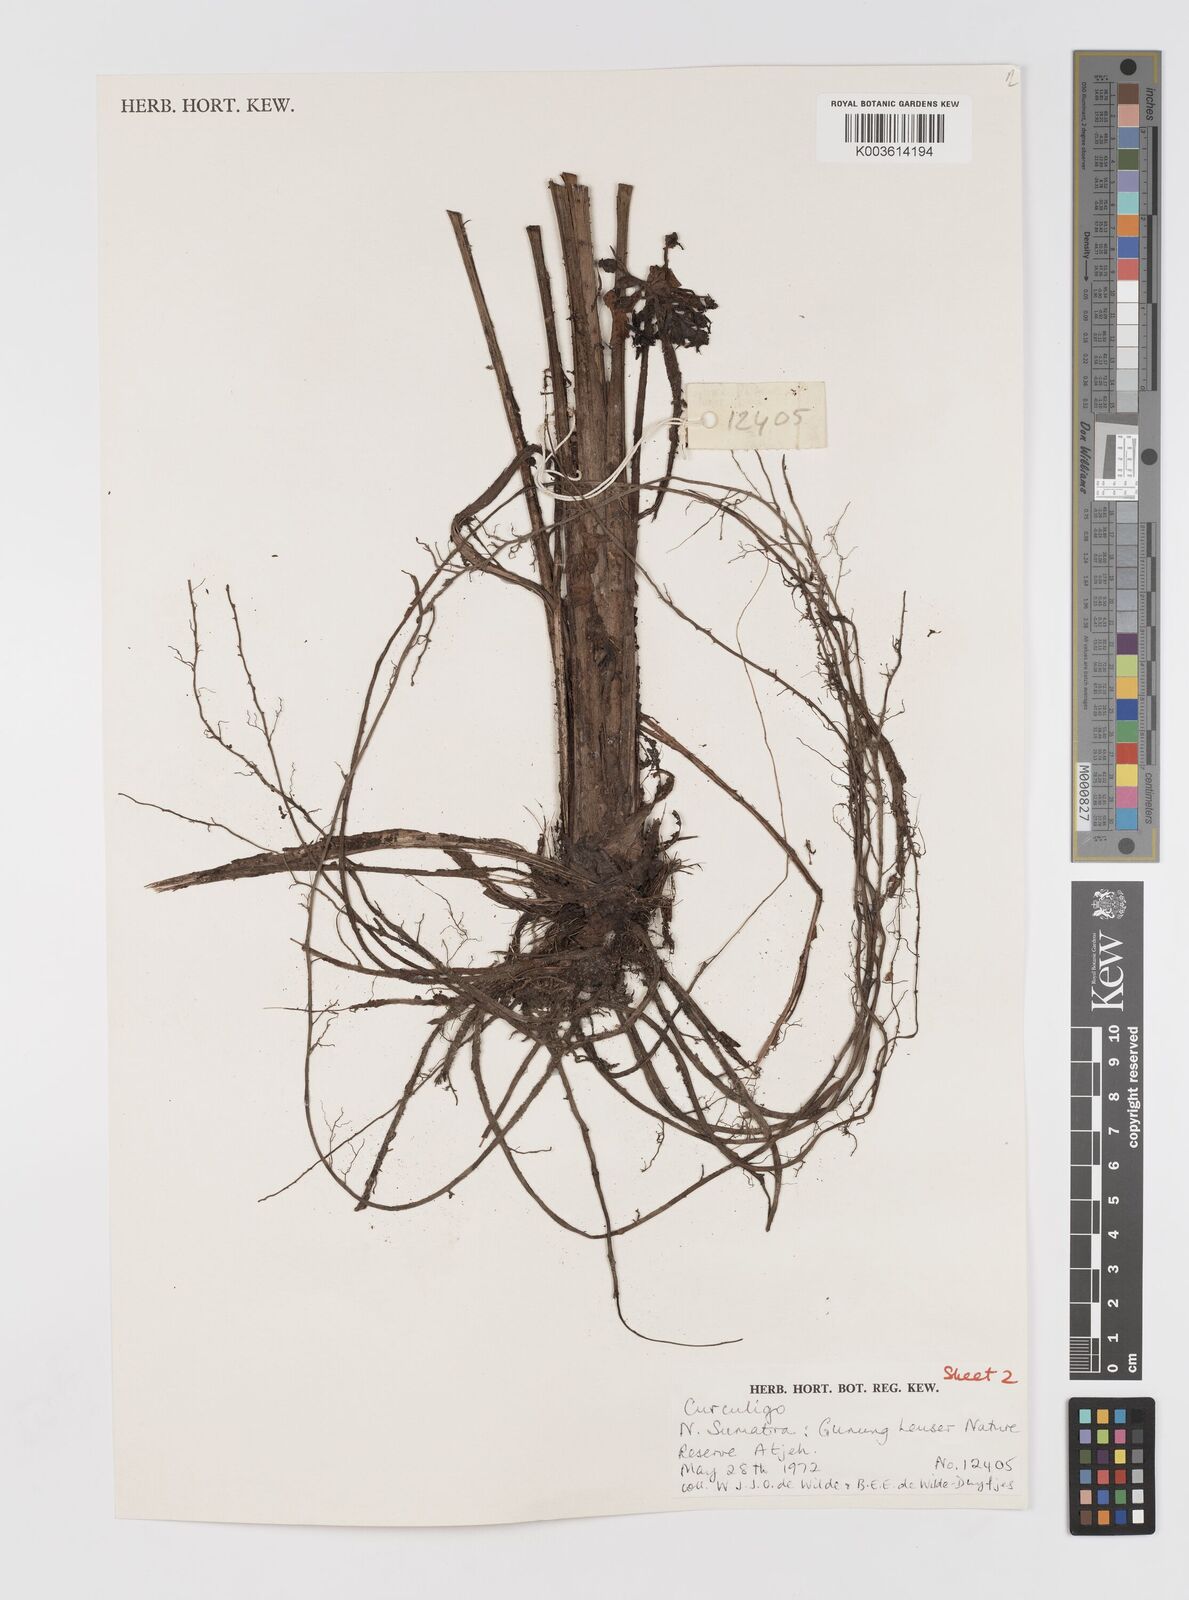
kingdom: Plantae
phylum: Tracheophyta
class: Liliopsida
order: Asparagales
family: Hypoxidaceae
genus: Curculigo
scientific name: Curculigo
